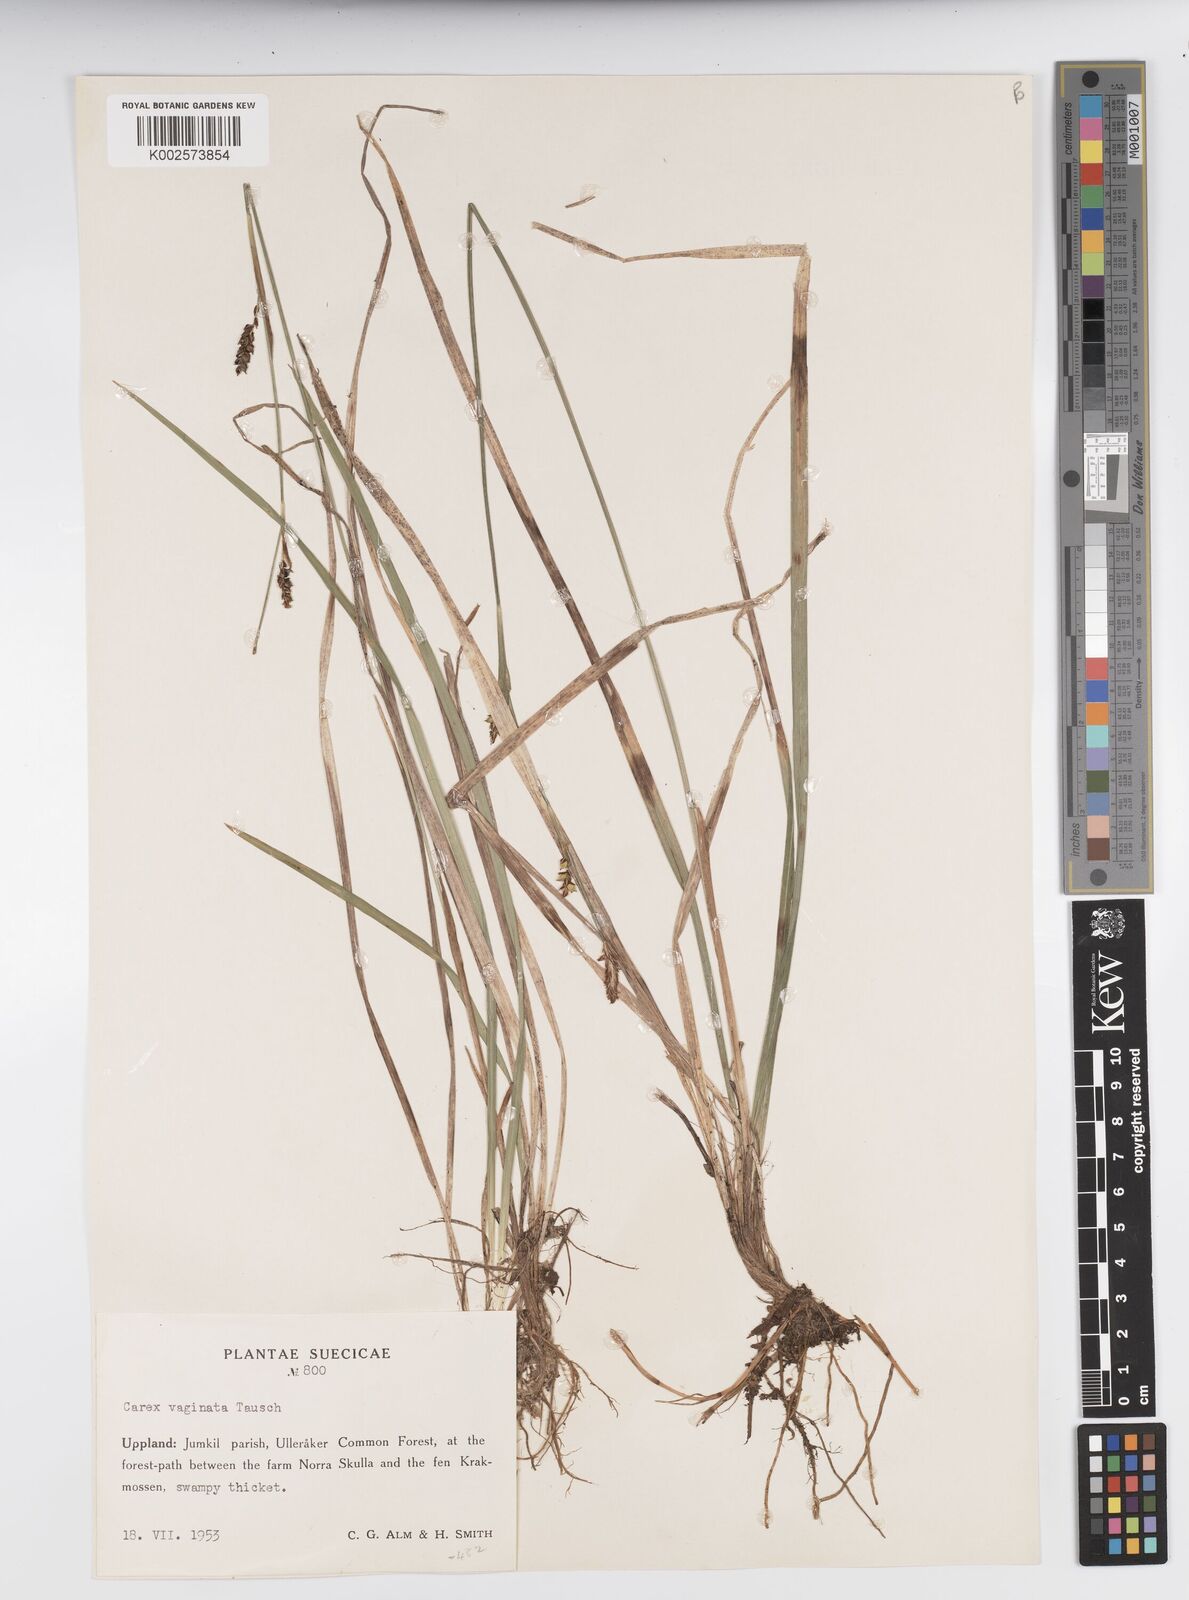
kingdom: Plantae
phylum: Tracheophyta
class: Liliopsida
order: Poales
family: Cyperaceae
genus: Carex
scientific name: Carex vaginata
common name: Sheathed sedge
